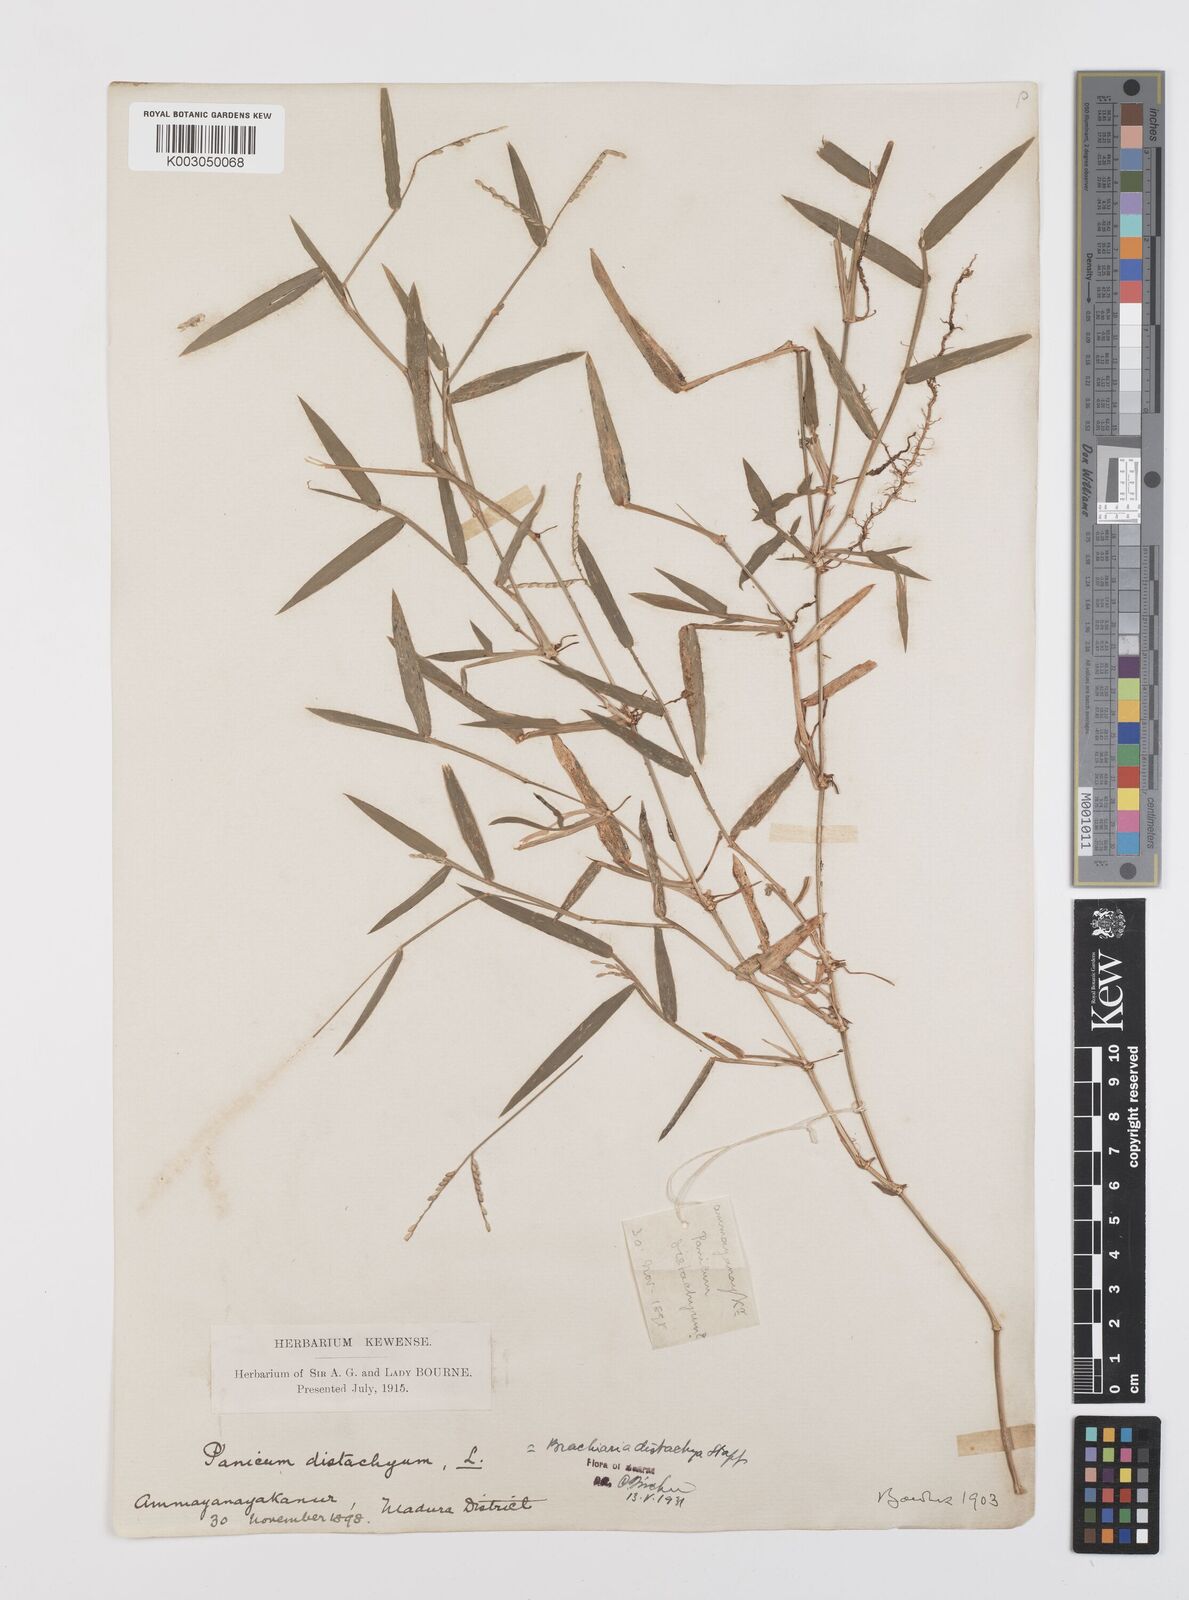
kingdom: Plantae
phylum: Tracheophyta
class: Liliopsida
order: Poales
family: Poaceae
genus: Urochloa
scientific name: Urochloa distachyos
